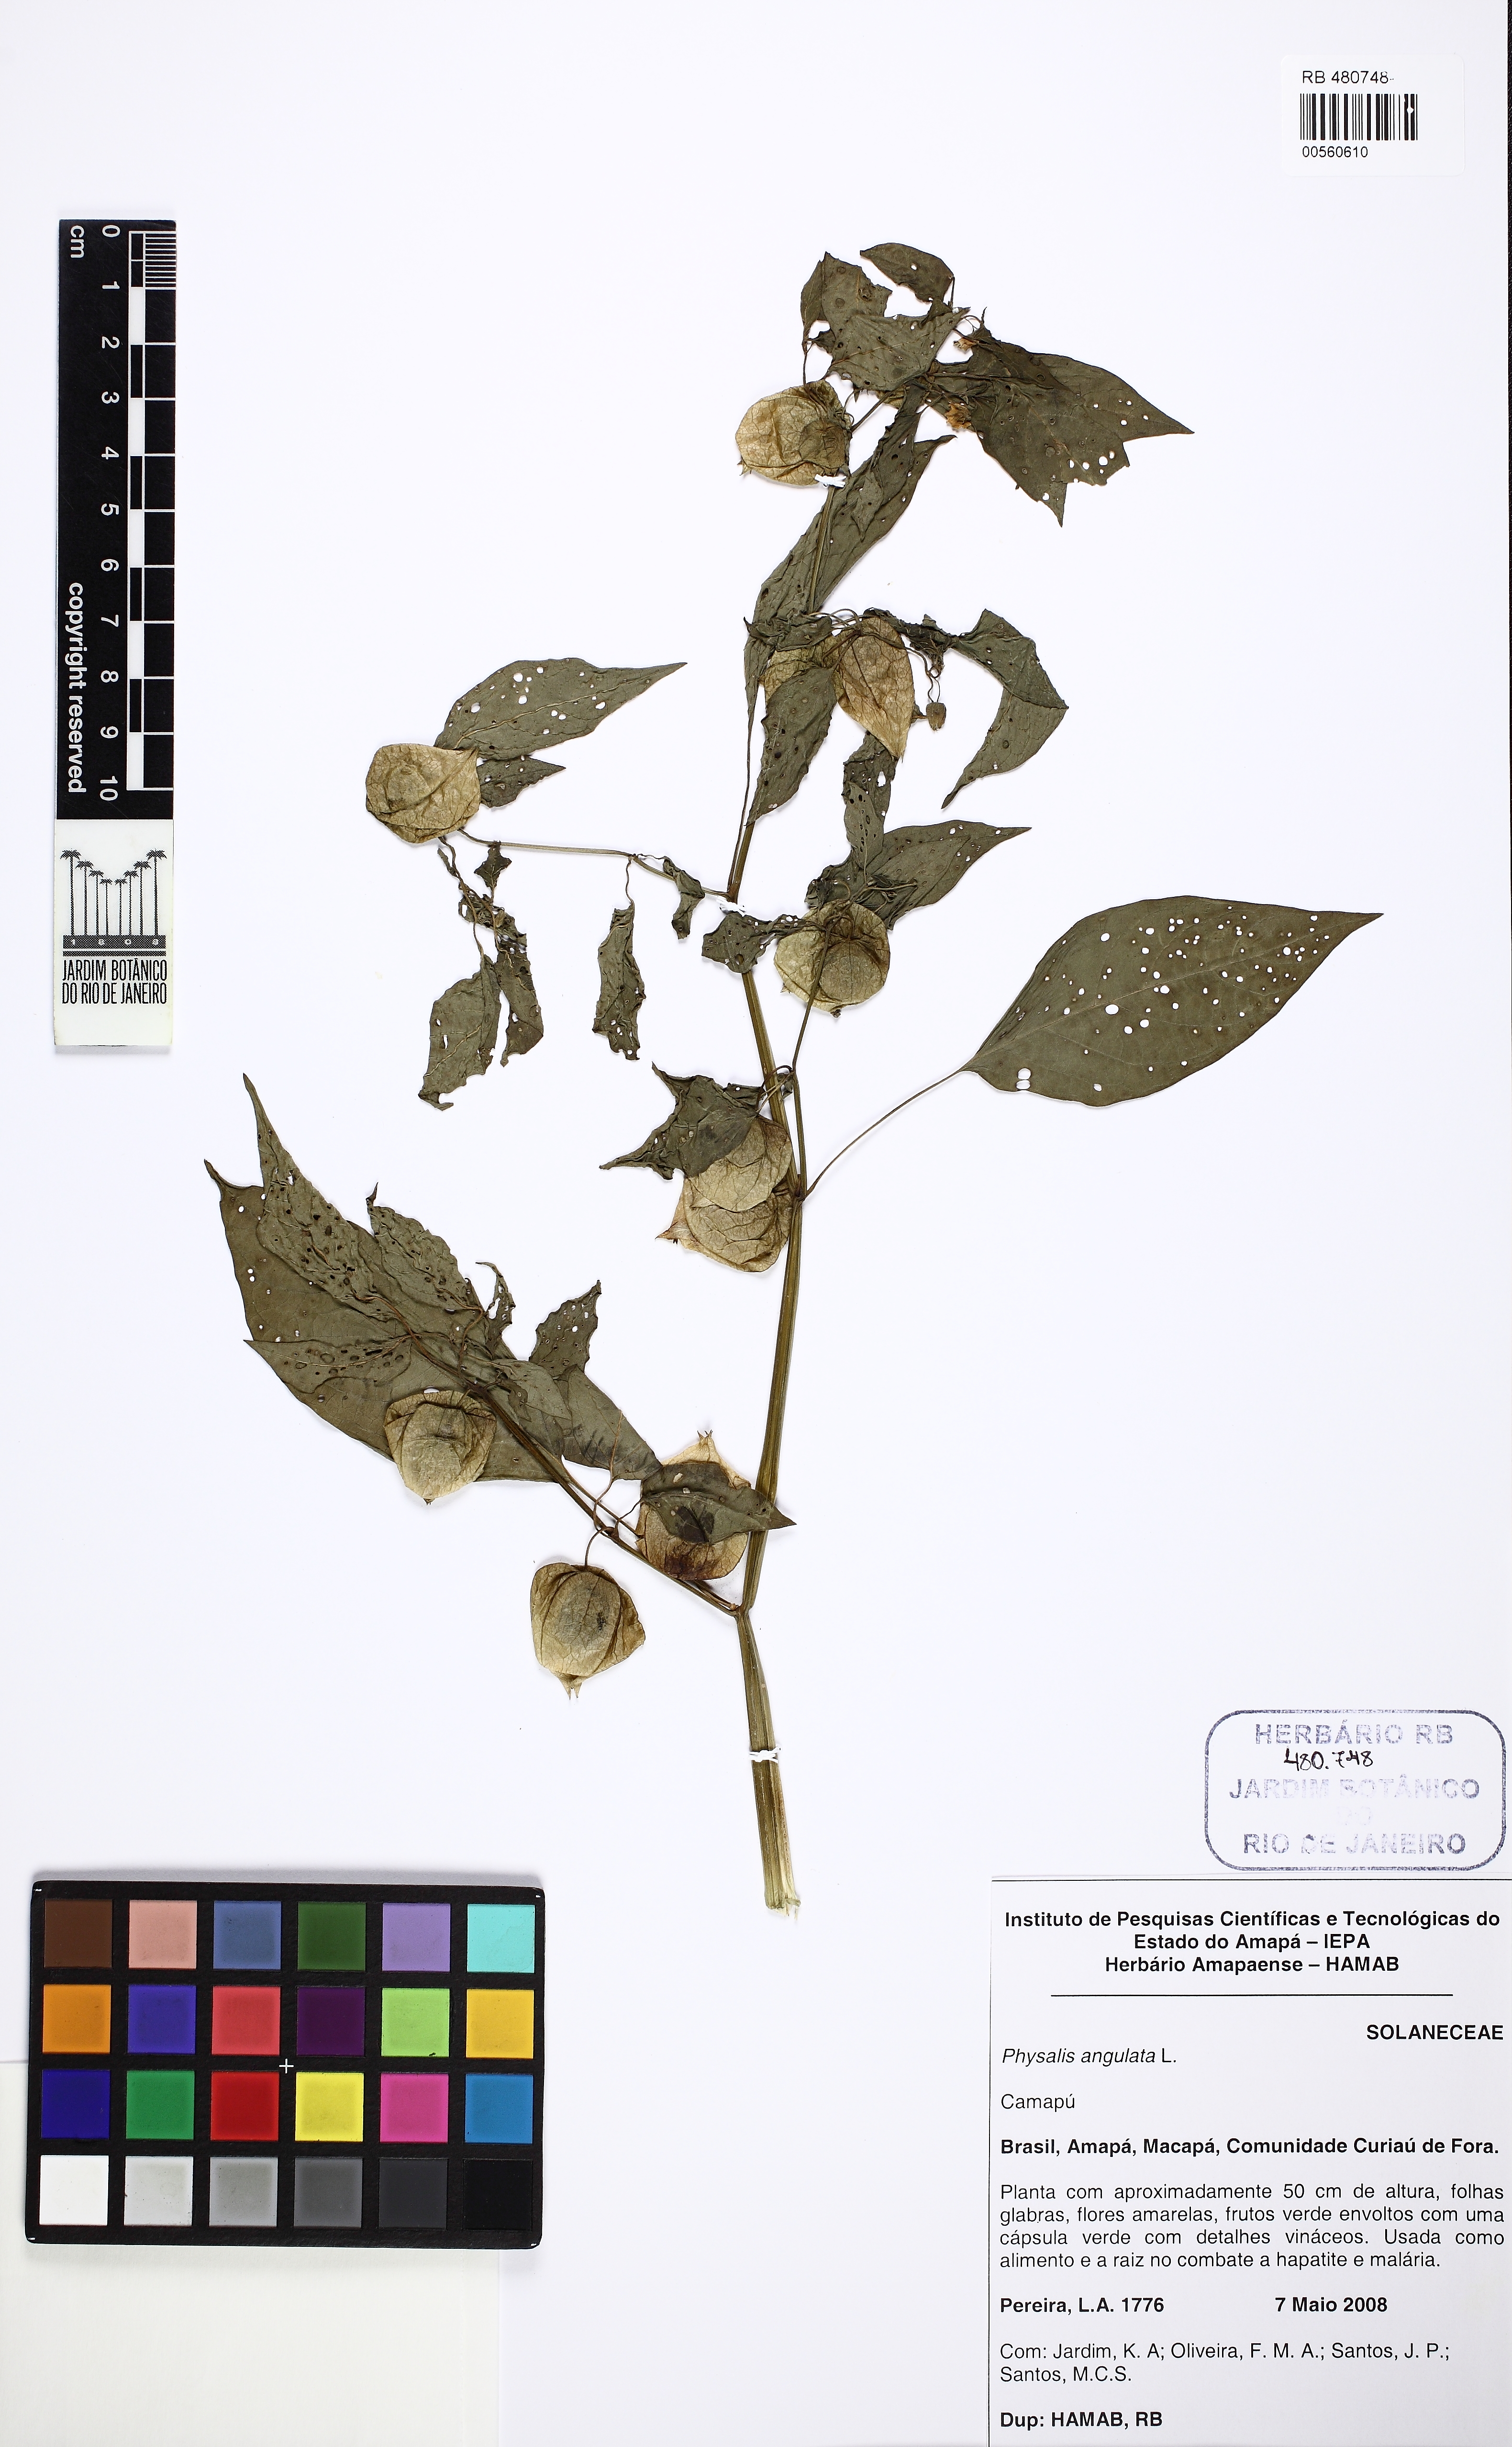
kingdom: Plantae
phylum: Tracheophyta
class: Magnoliopsida
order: Solanales
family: Solanaceae
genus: Physalis
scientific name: Physalis angulata
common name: Angular winter-cherry
